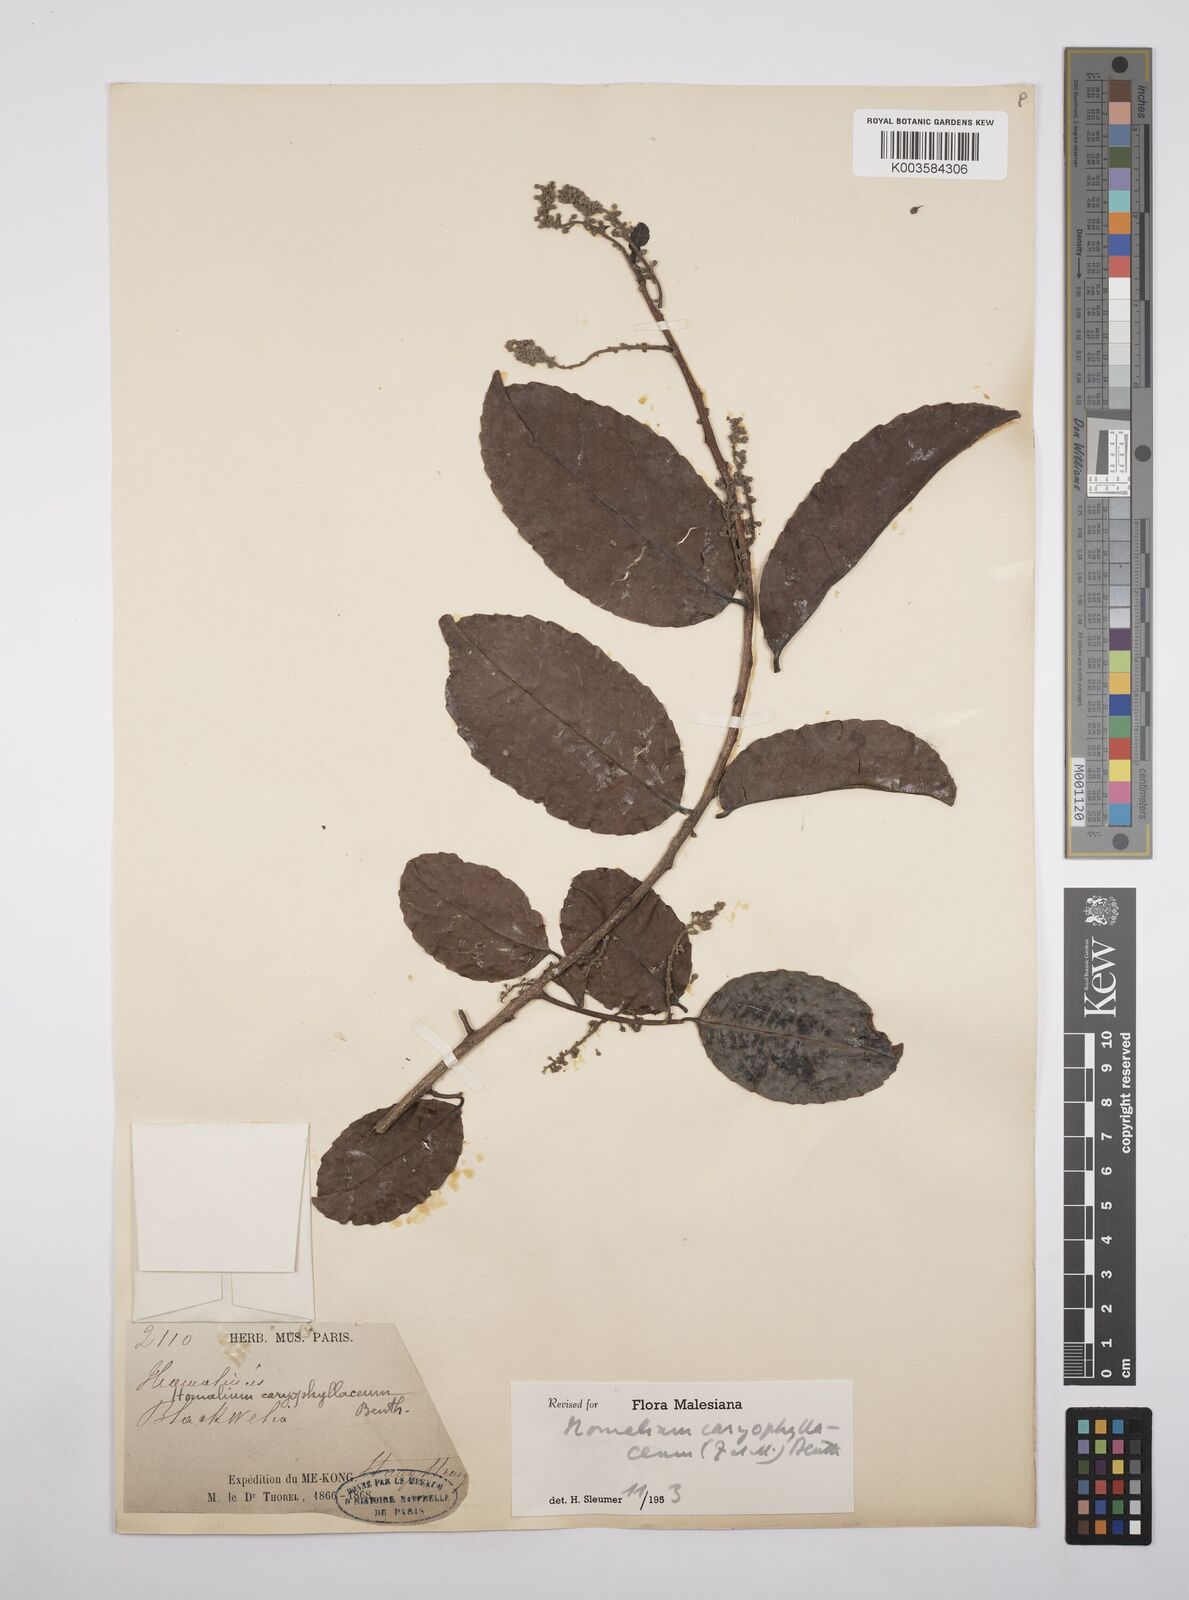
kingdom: Plantae
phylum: Tracheophyta
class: Magnoliopsida
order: Malpighiales
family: Salicaceae
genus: Homalium
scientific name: Homalium caryophyllaceum
